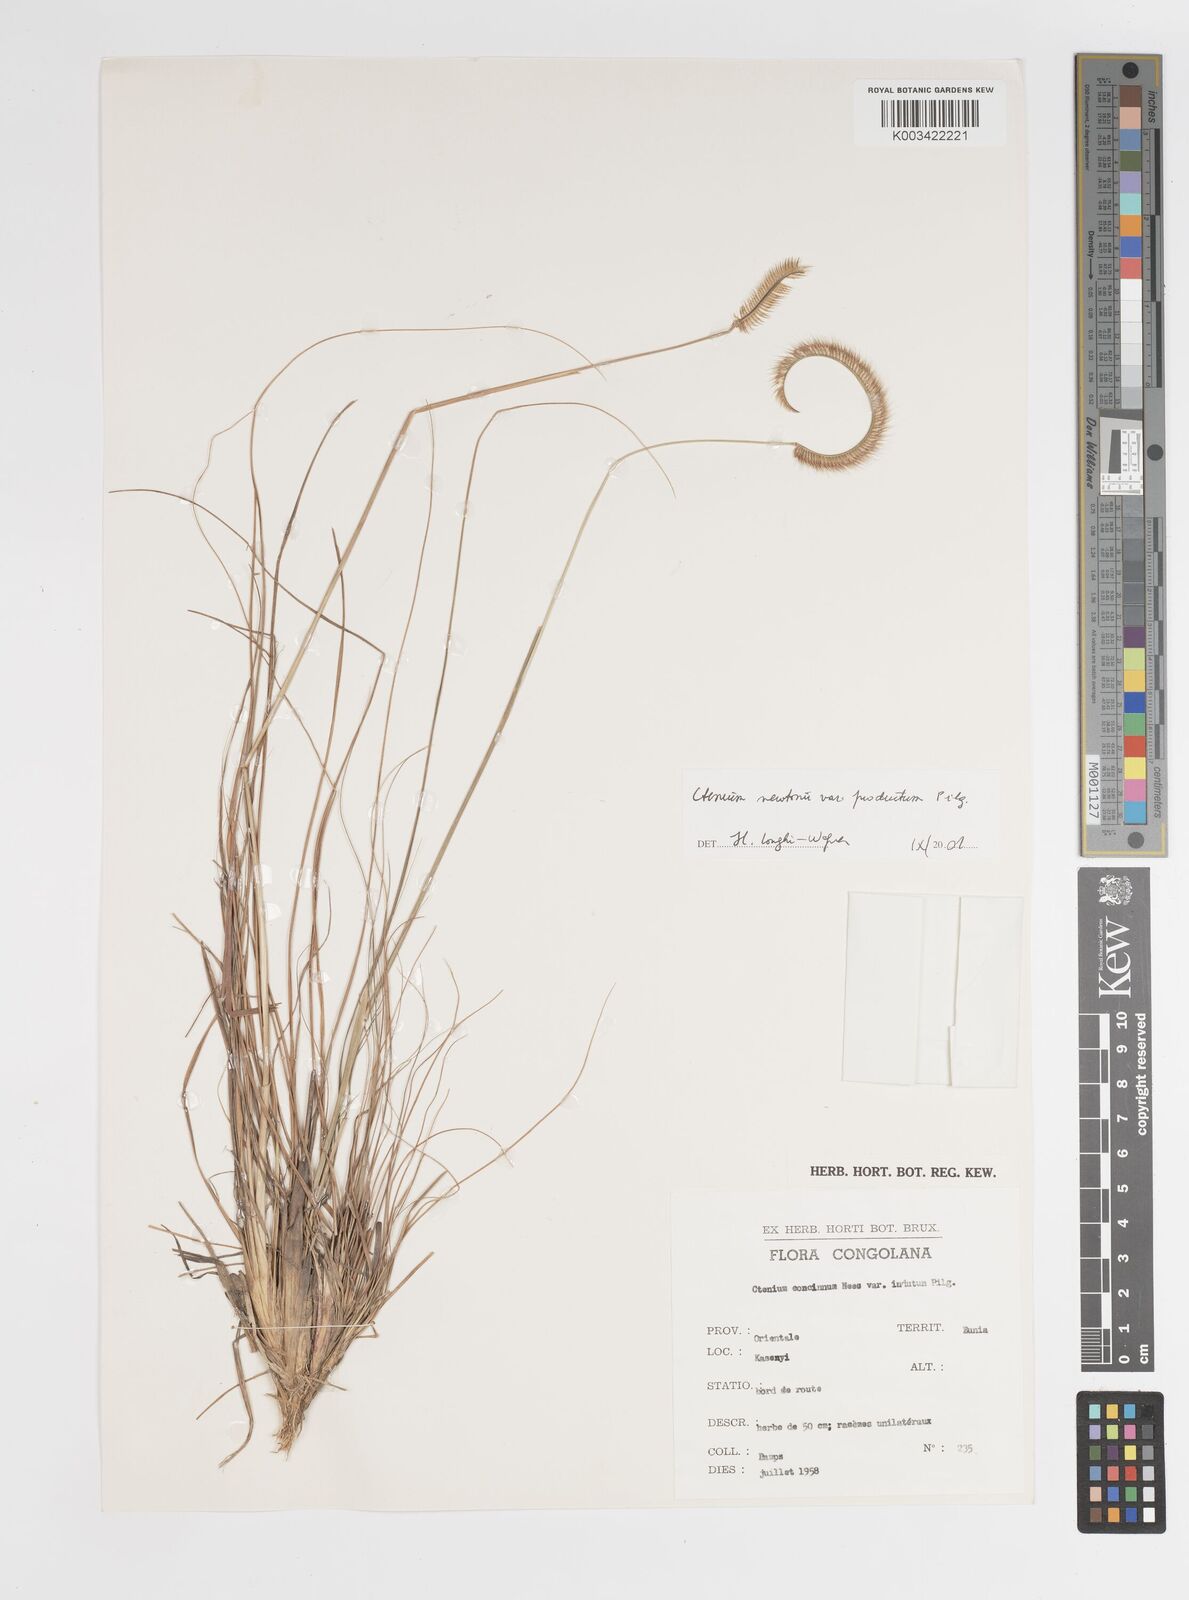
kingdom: Plantae
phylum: Tracheophyta
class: Liliopsida
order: Poales
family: Poaceae
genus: Ctenium
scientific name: Ctenium newtonii
